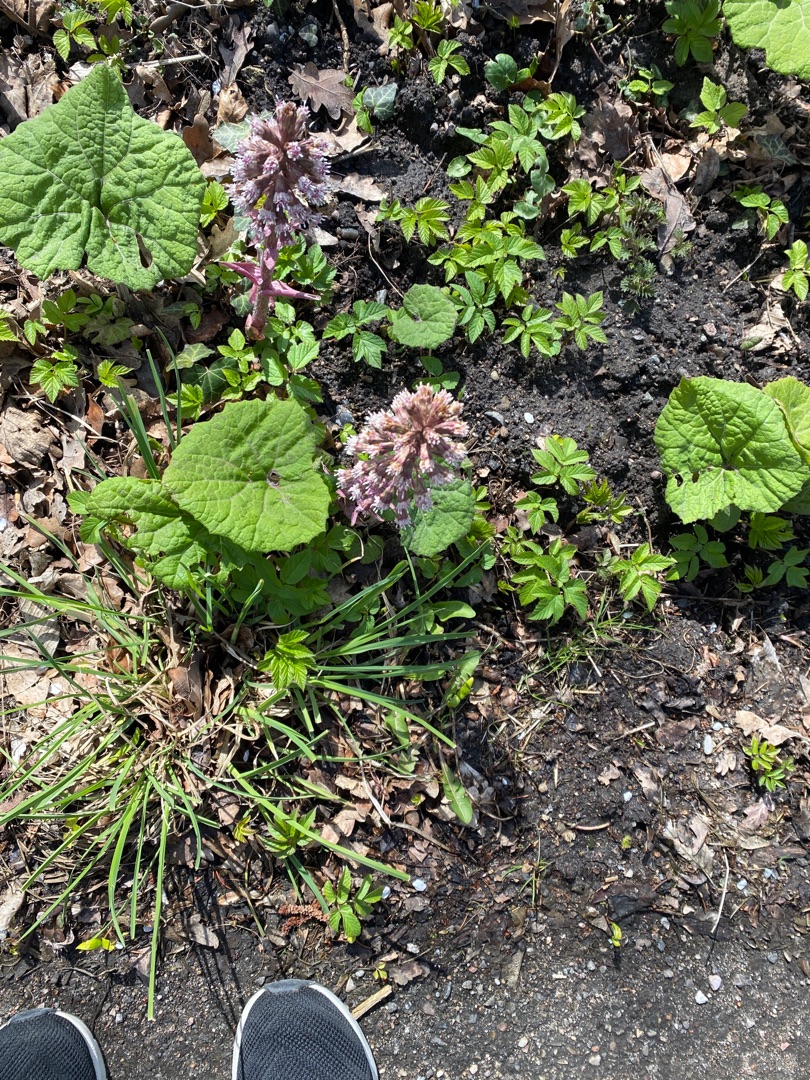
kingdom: Plantae
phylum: Tracheophyta
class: Magnoliopsida
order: Asterales
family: Asteraceae
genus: Petasites
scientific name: Petasites hybridus
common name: Rød hestehov
